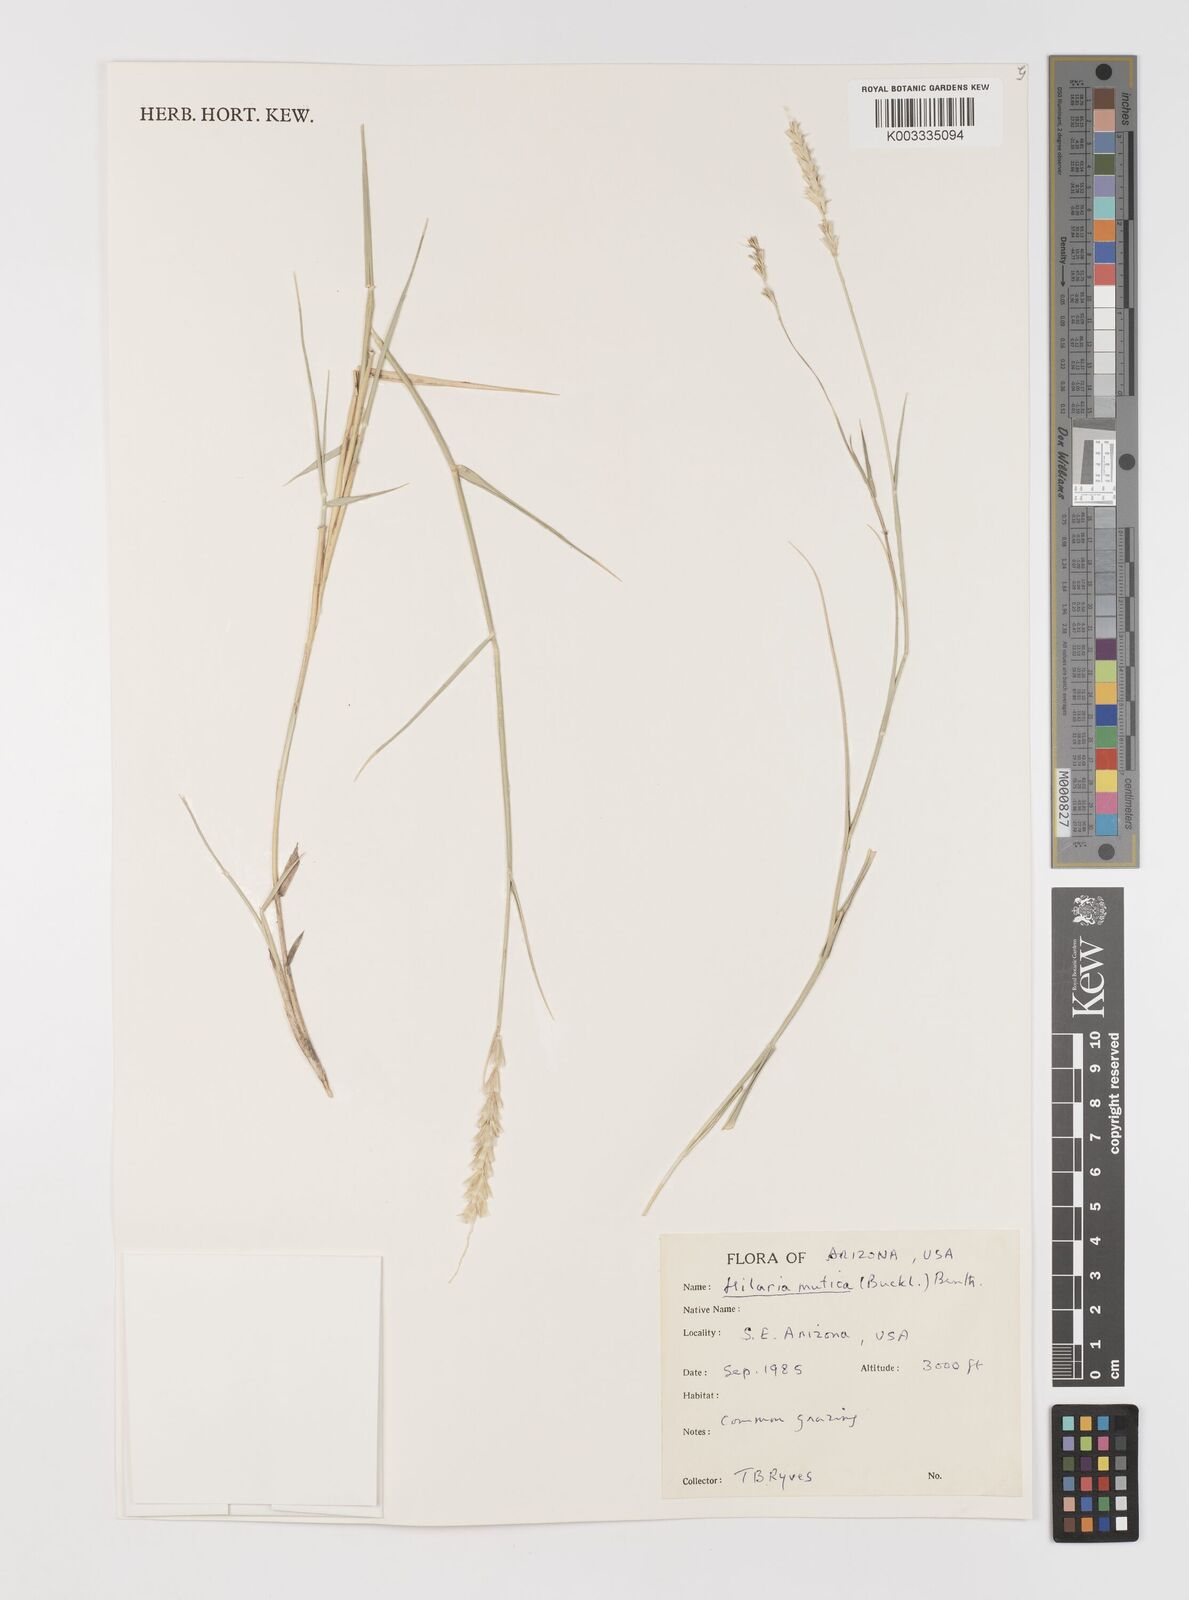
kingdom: Plantae
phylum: Tracheophyta
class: Liliopsida
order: Poales
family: Poaceae
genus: Hilaria
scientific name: Hilaria mutica
